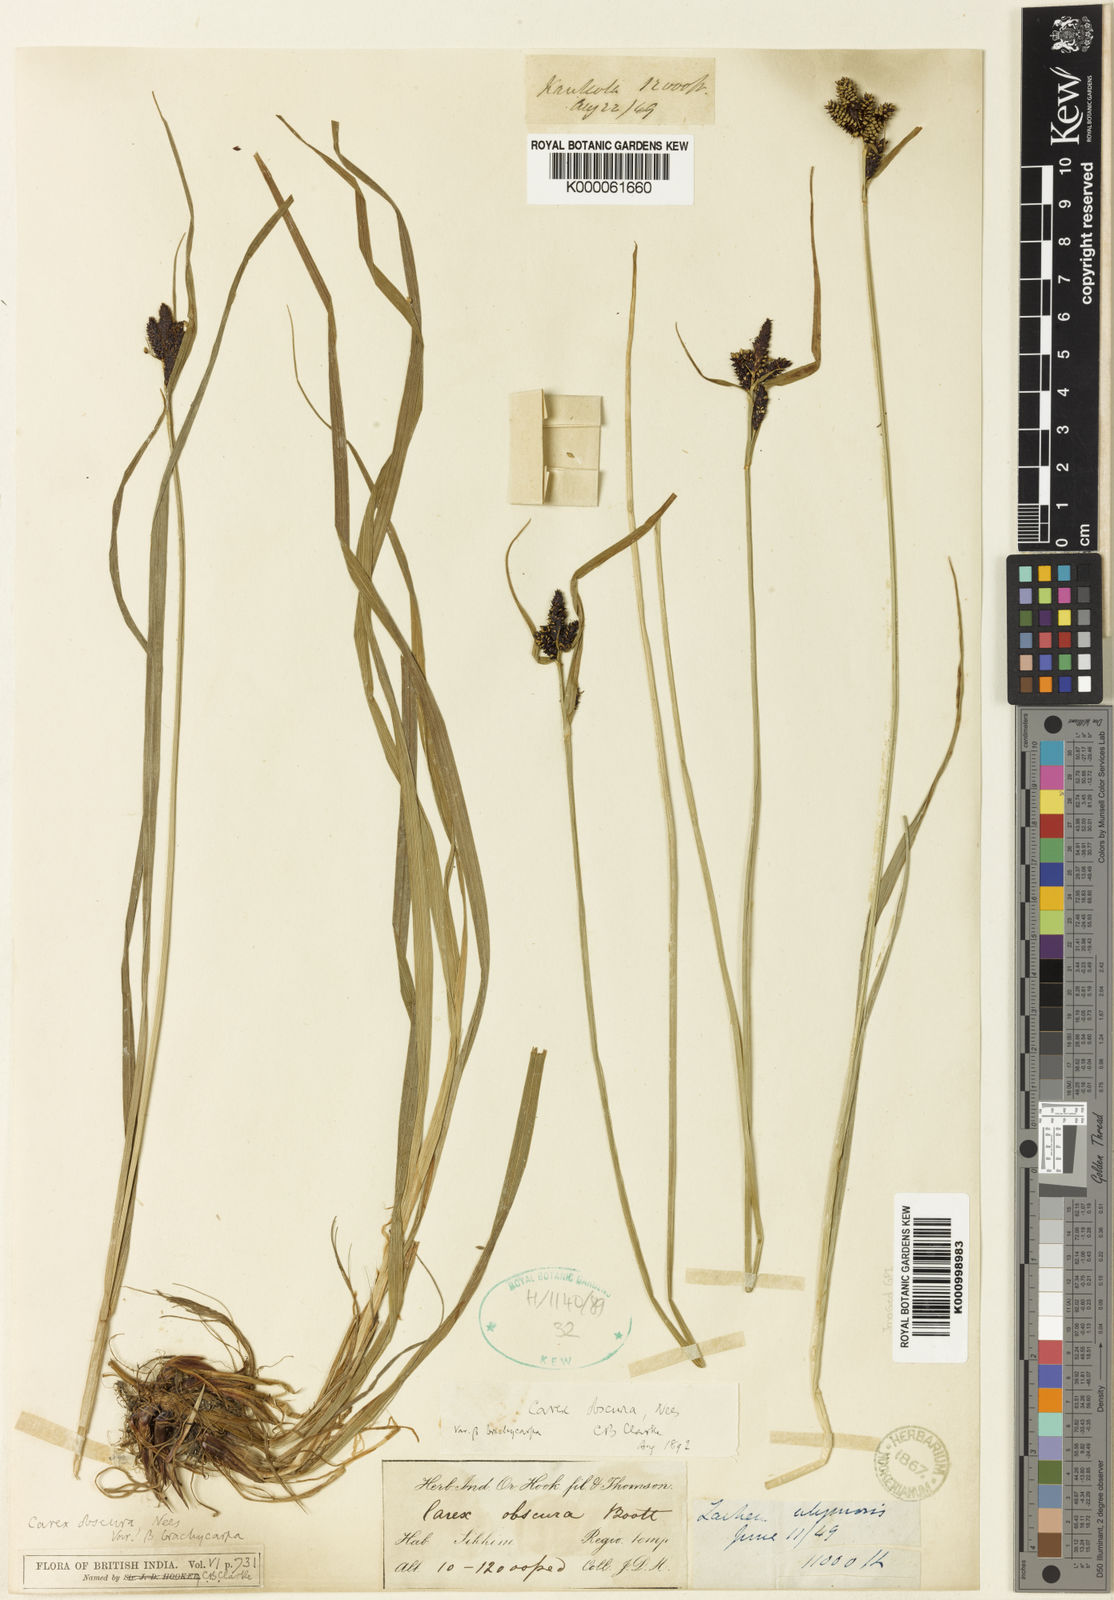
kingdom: Plantae
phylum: Tracheophyta
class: Liliopsida
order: Poales
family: Cyperaceae
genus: Carex
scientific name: Carex obscura
